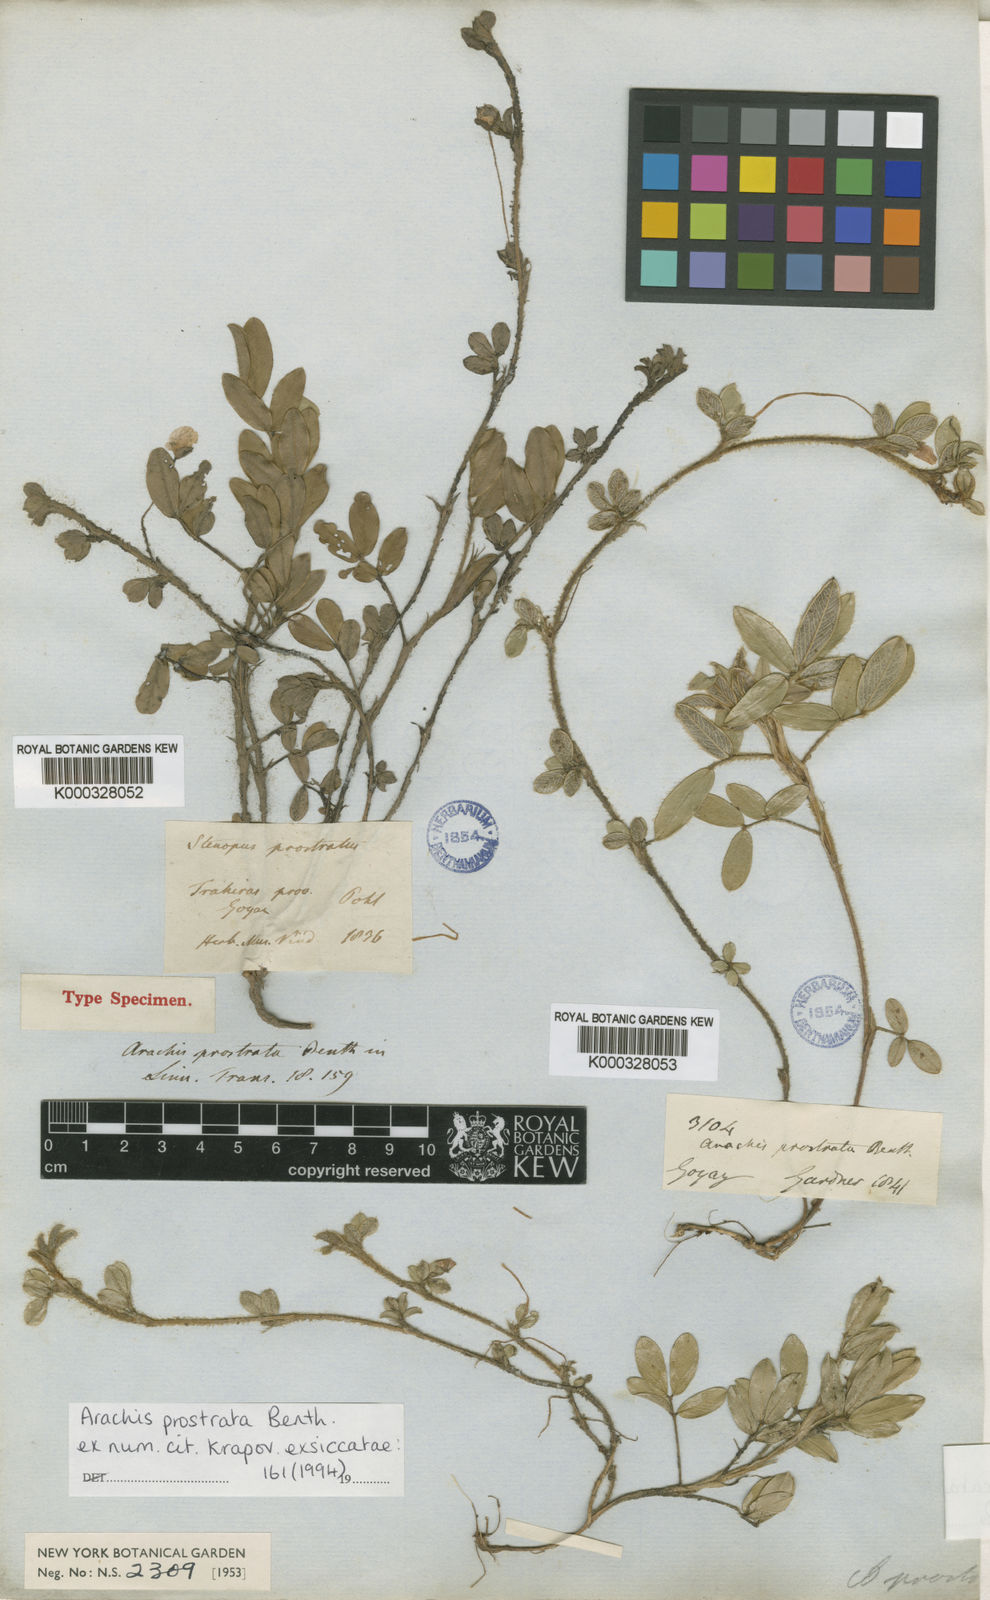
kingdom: Plantae
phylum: Tracheophyta
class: Magnoliopsida
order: Fabales
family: Fabaceae
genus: Arachis
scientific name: Arachis prostrata
